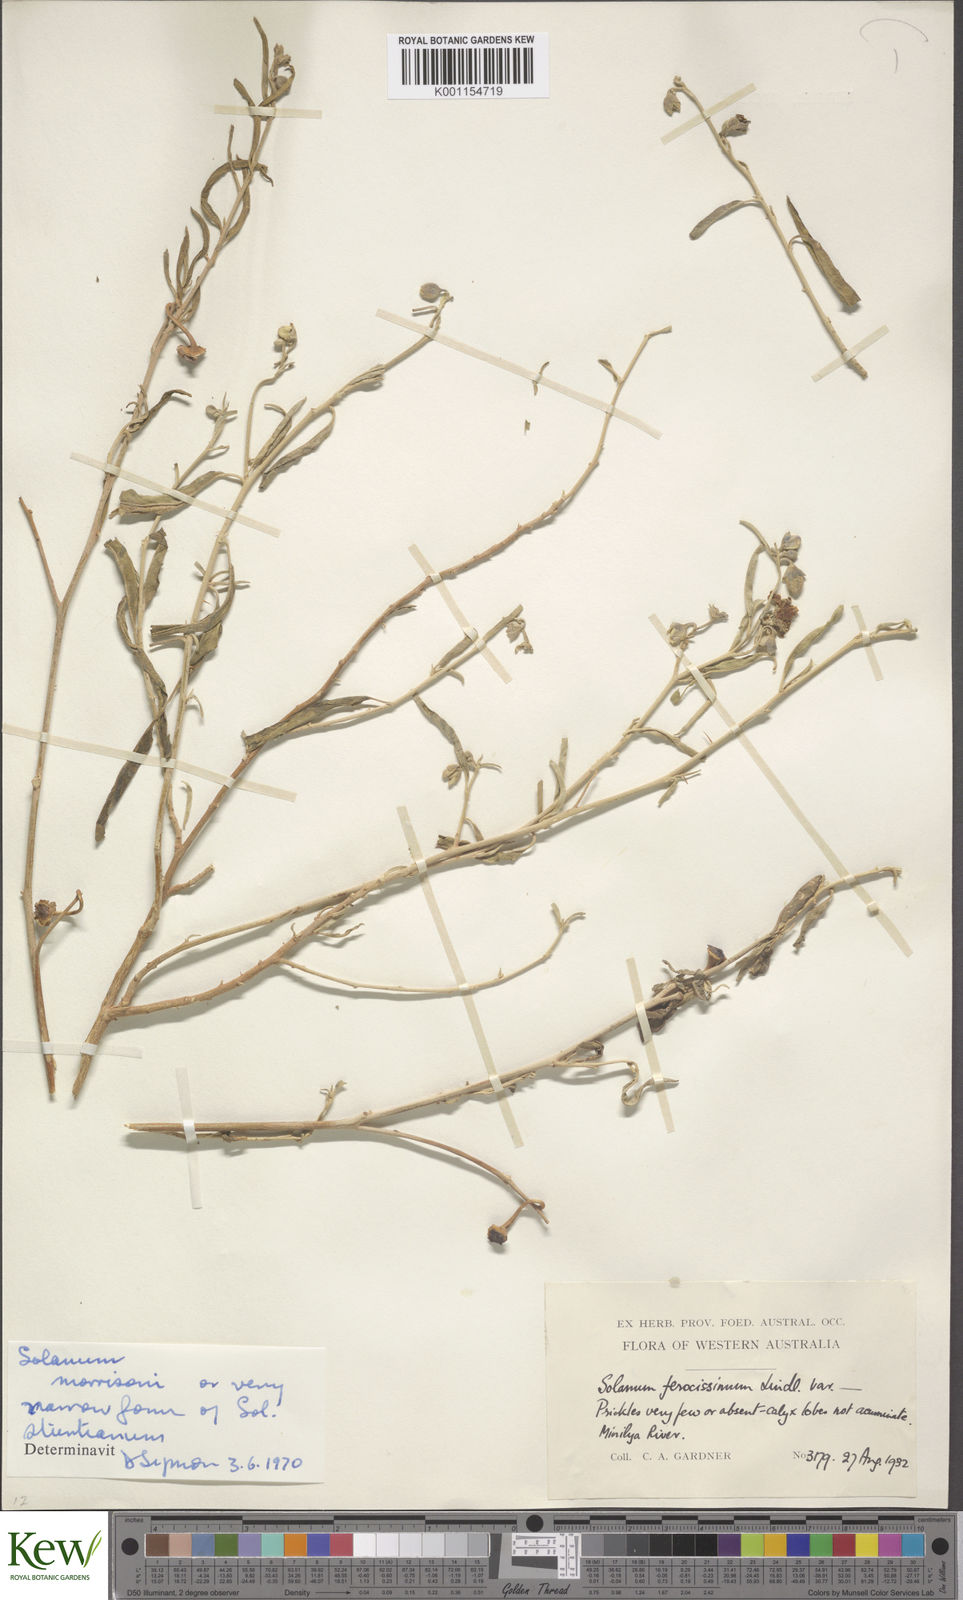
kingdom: Plantae
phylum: Tracheophyta
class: Magnoliopsida
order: Solanales
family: Solanaceae
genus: Solanum
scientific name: Solanum sturtianum
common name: Thargomindah nightshade
